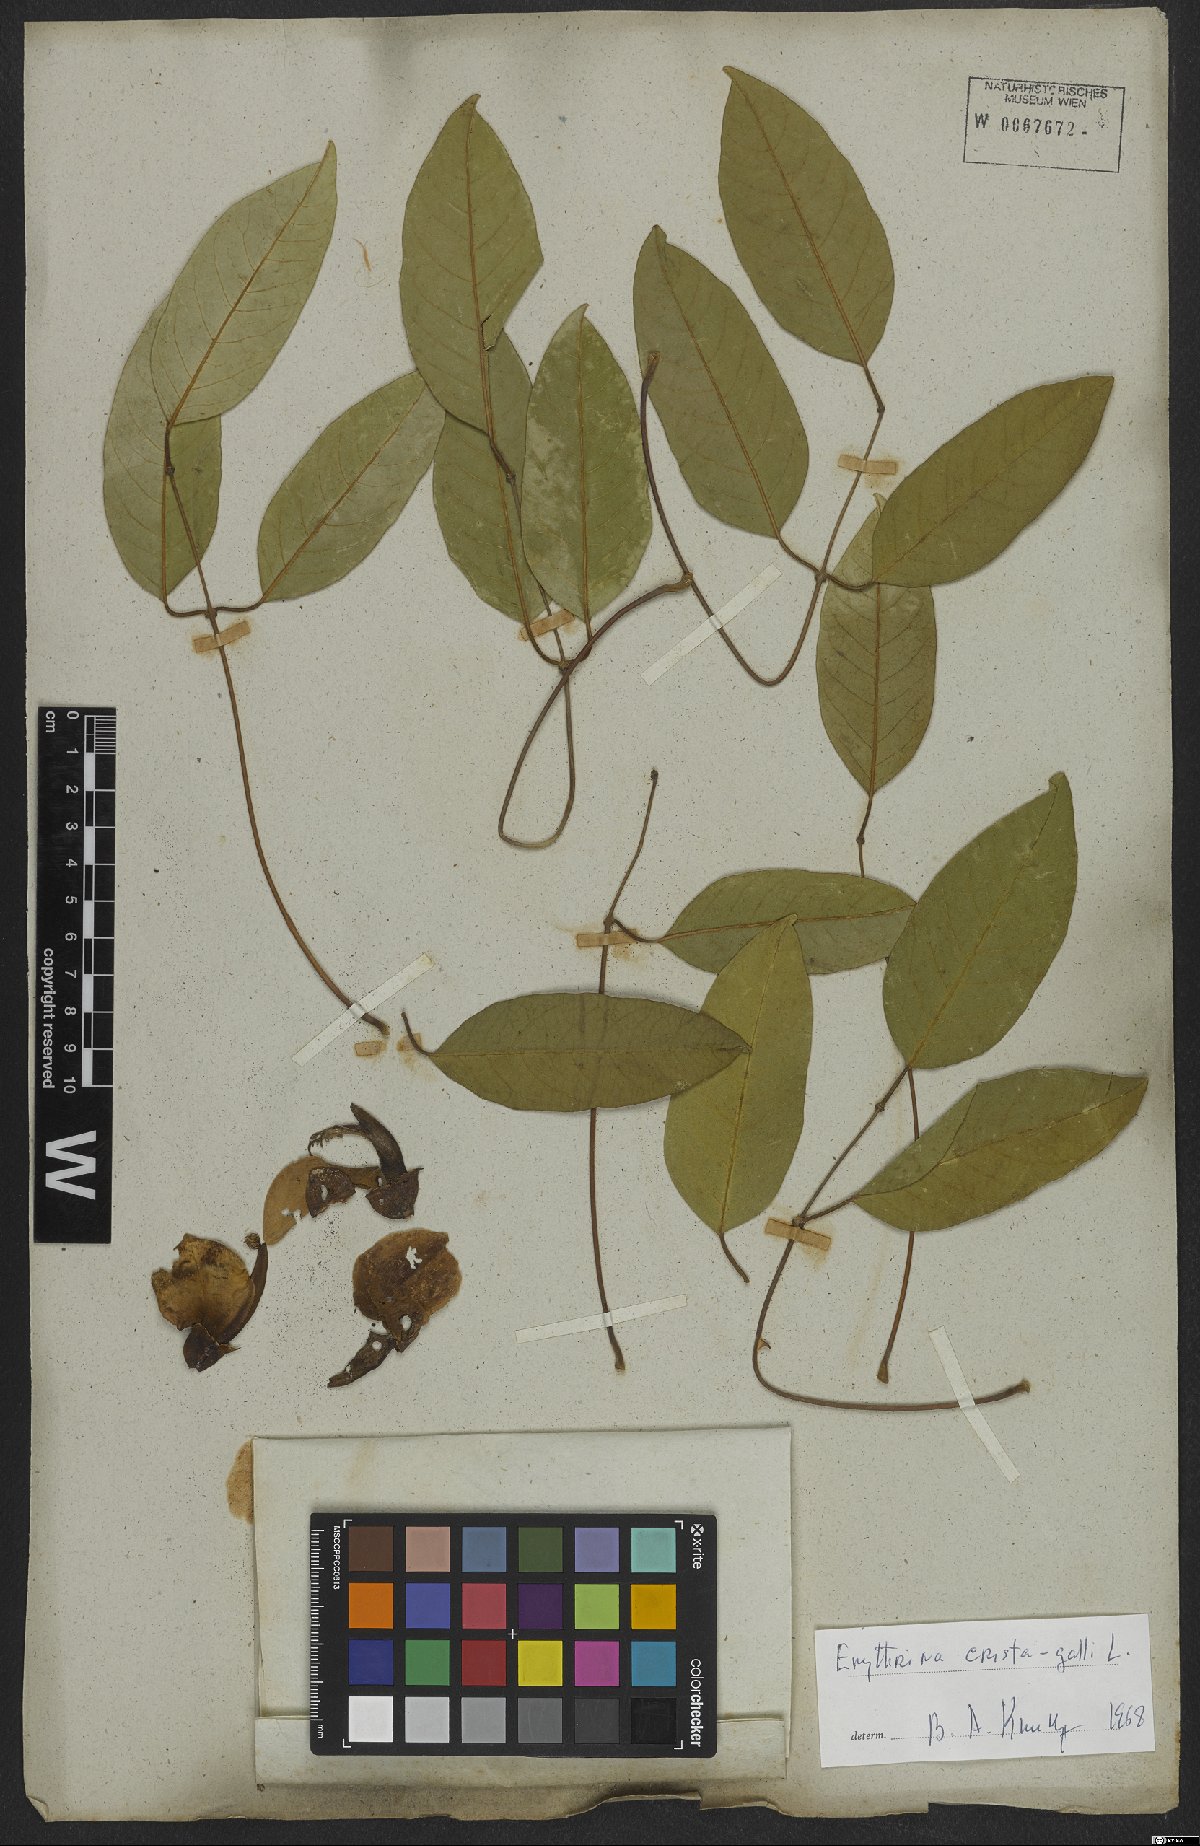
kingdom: Plantae
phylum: Tracheophyta
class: Magnoliopsida
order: Fabales
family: Fabaceae
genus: Erythrina
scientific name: Erythrina crista-galli
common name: Cockspur coral tree
